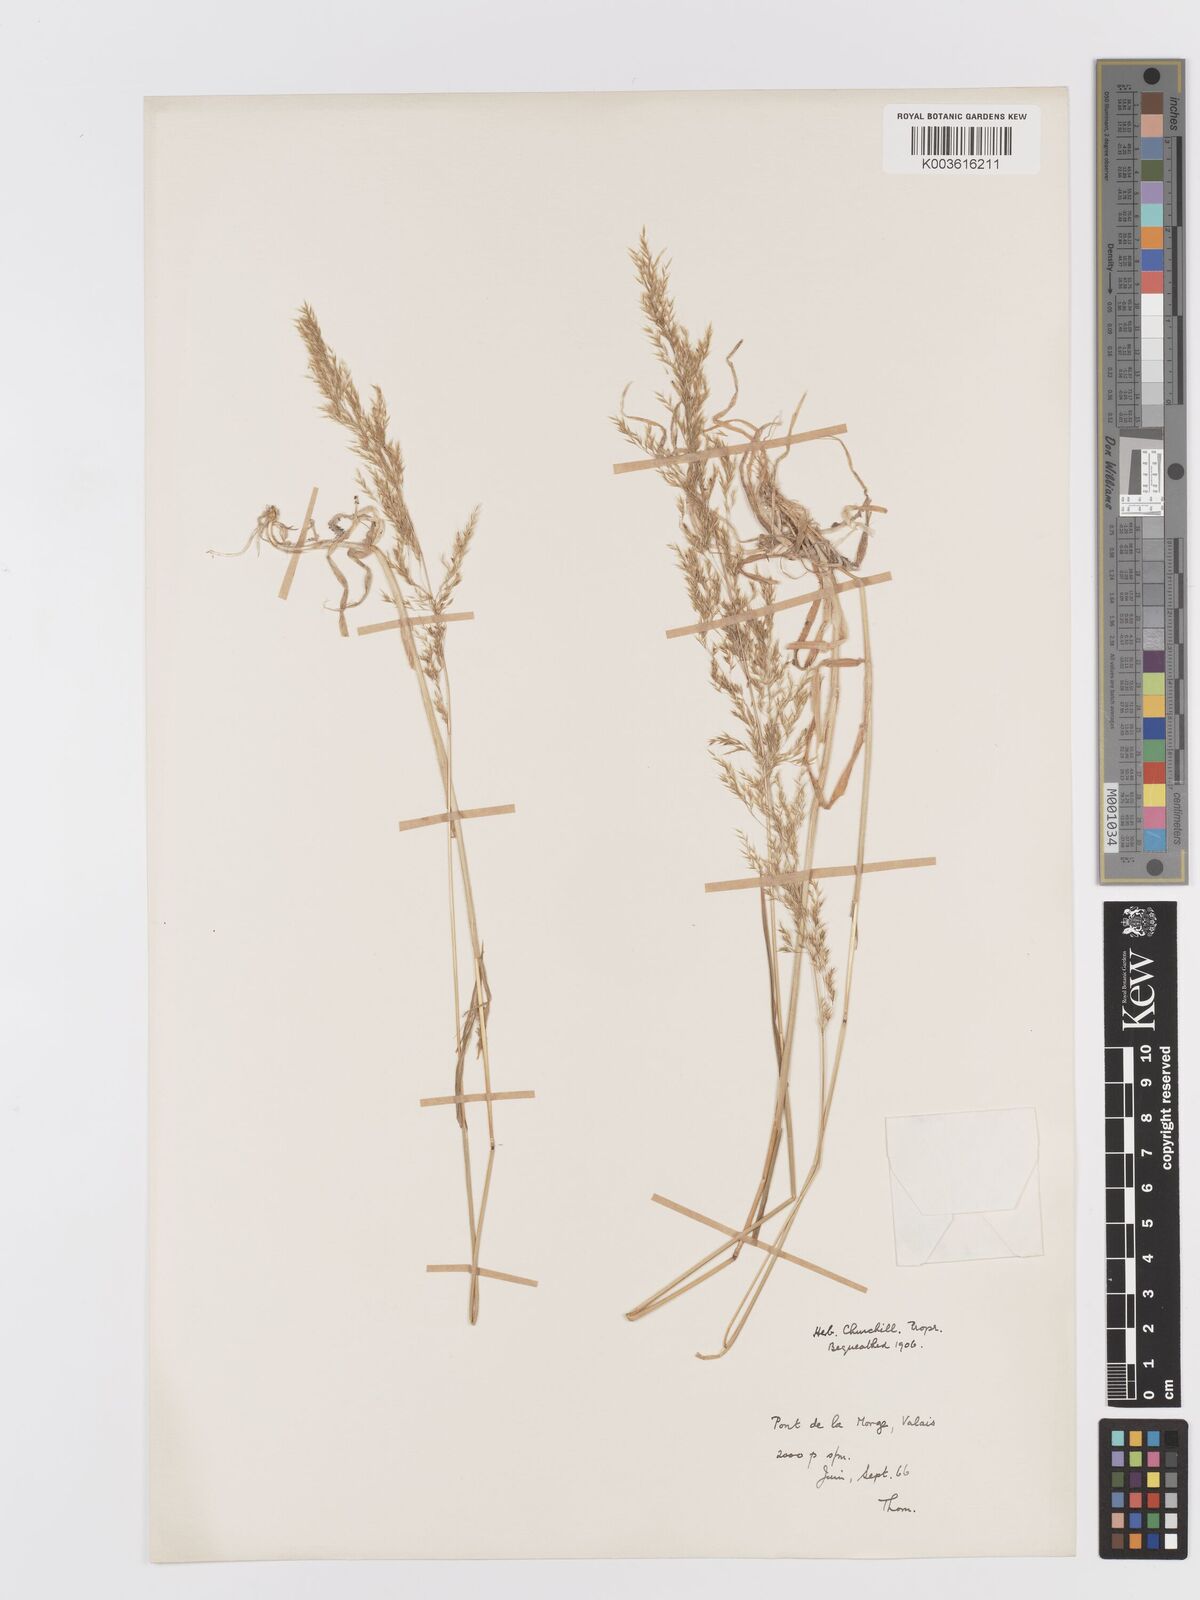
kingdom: Plantae
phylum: Tracheophyta
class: Liliopsida
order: Poales
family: Poaceae
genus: Trisetaria
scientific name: Trisetaria
